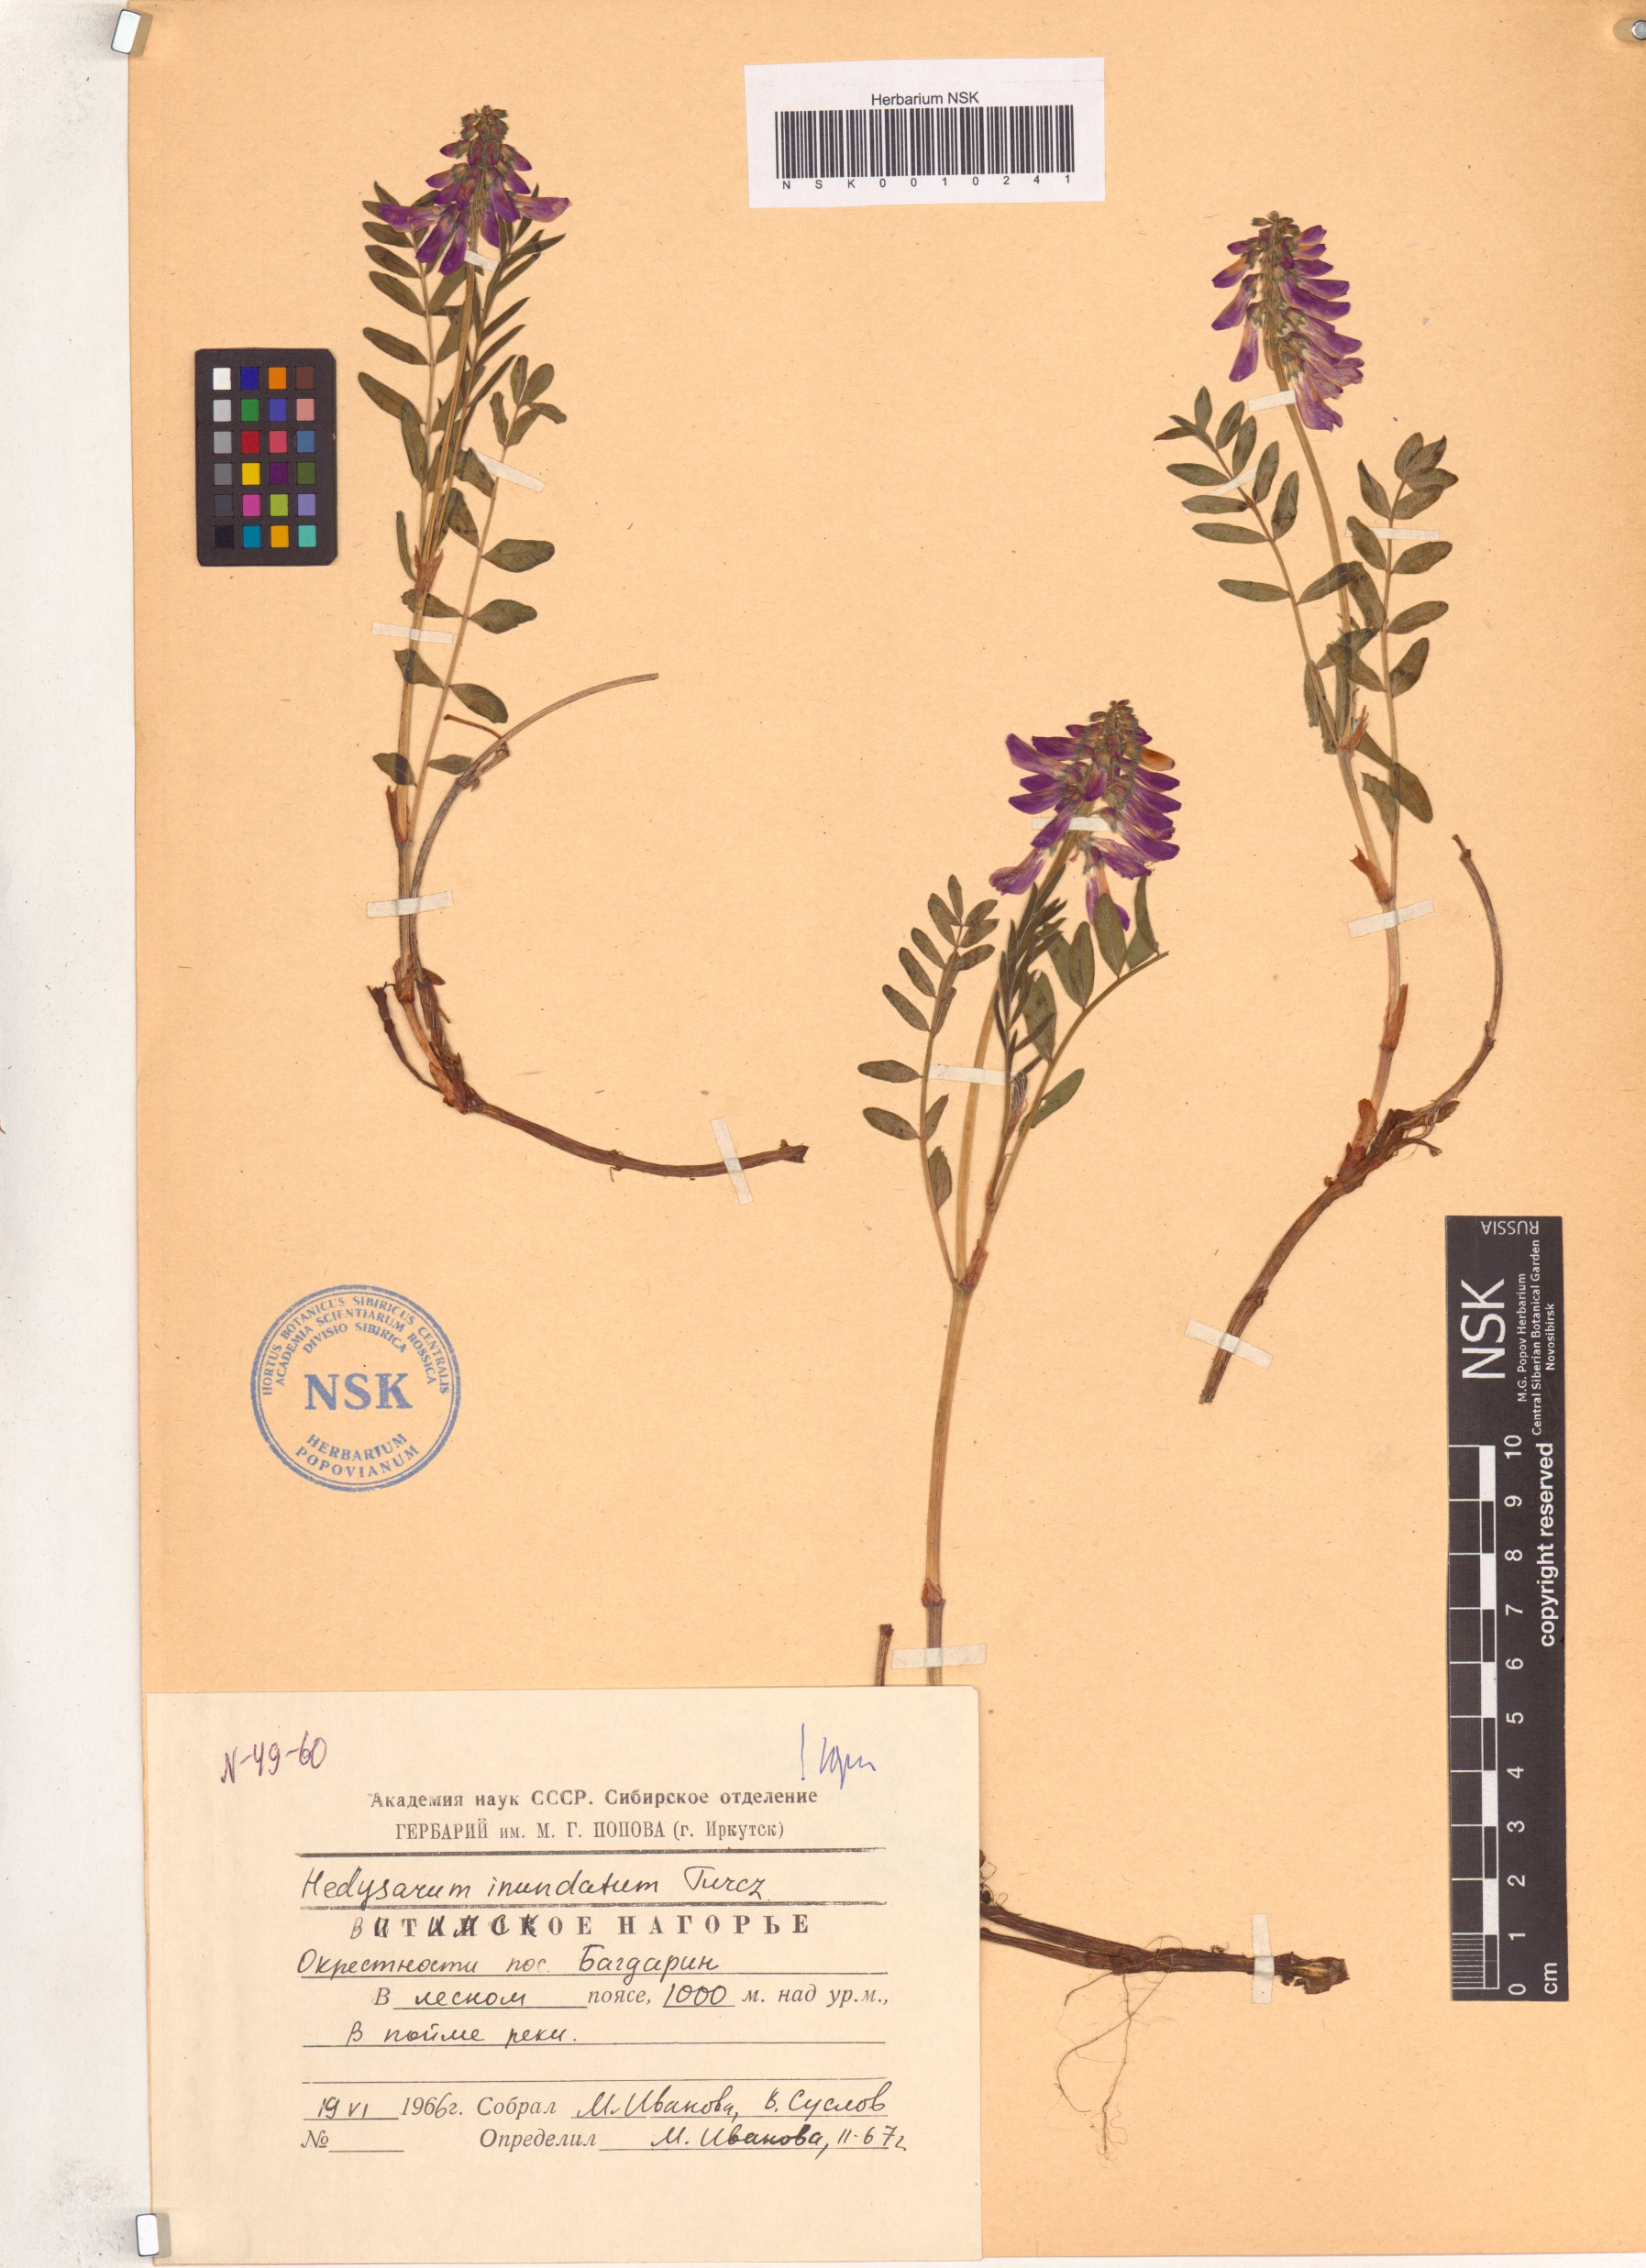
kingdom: Plantae
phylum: Tracheophyta
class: Magnoliopsida
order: Fabales
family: Fabaceae
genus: Hedysarum
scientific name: Hedysarum inundatum
